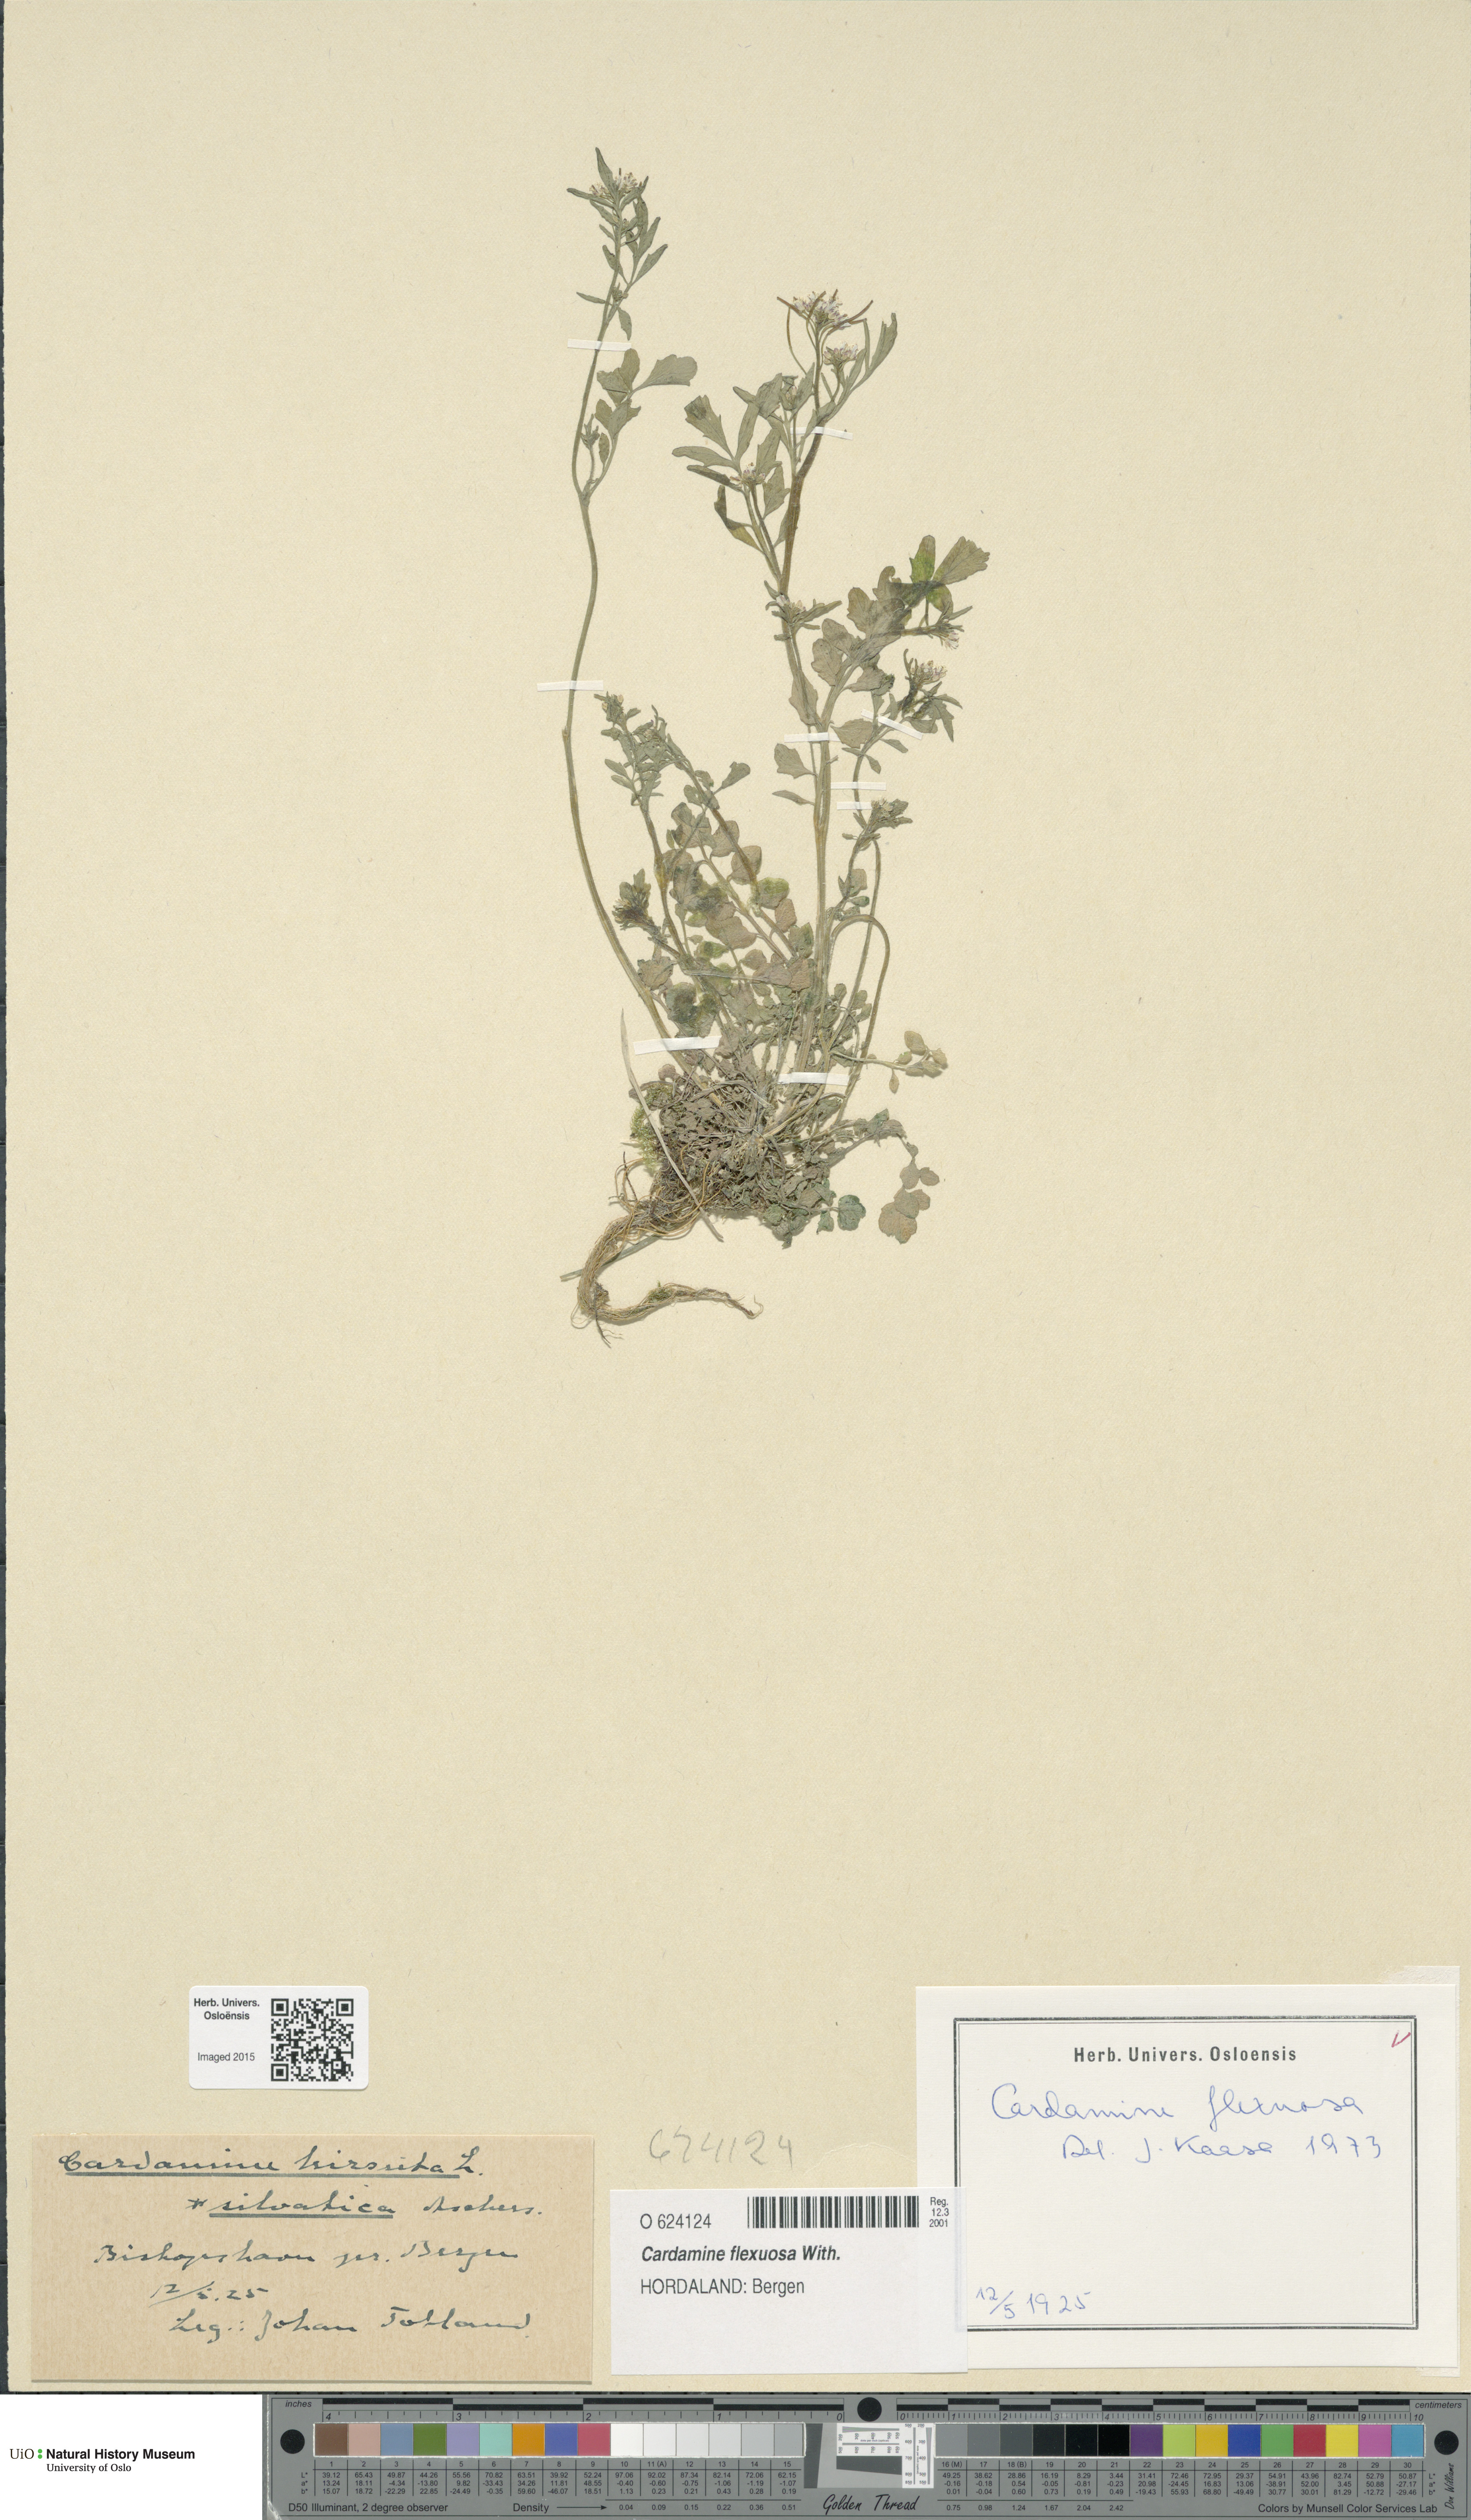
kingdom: Plantae
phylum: Tracheophyta
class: Magnoliopsida
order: Brassicales
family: Brassicaceae
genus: Cardamine
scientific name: Cardamine flexuosa
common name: Woodland bittercress
